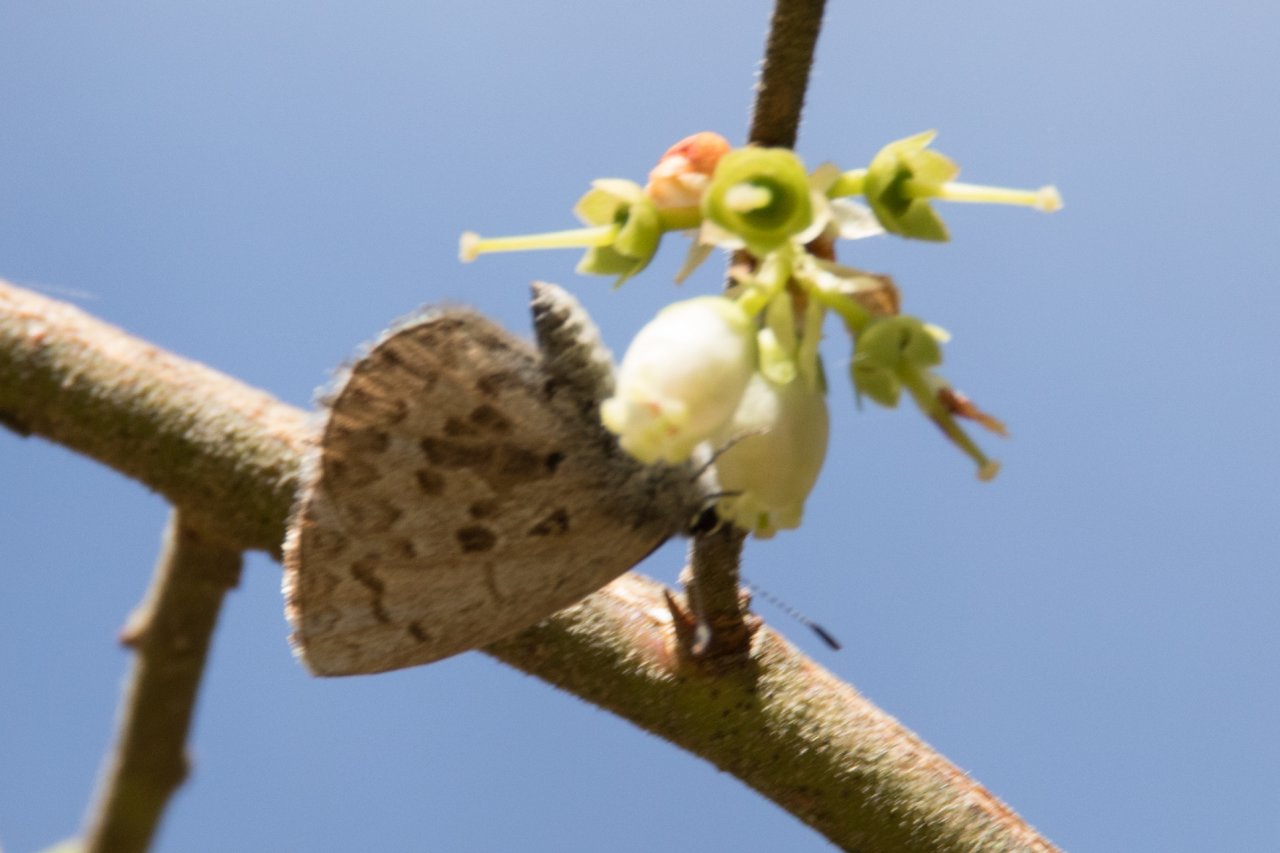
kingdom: Animalia
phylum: Arthropoda
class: Insecta
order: Lepidoptera
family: Lycaenidae
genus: Celastrina
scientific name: Celastrina ladon
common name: Spring Azure
